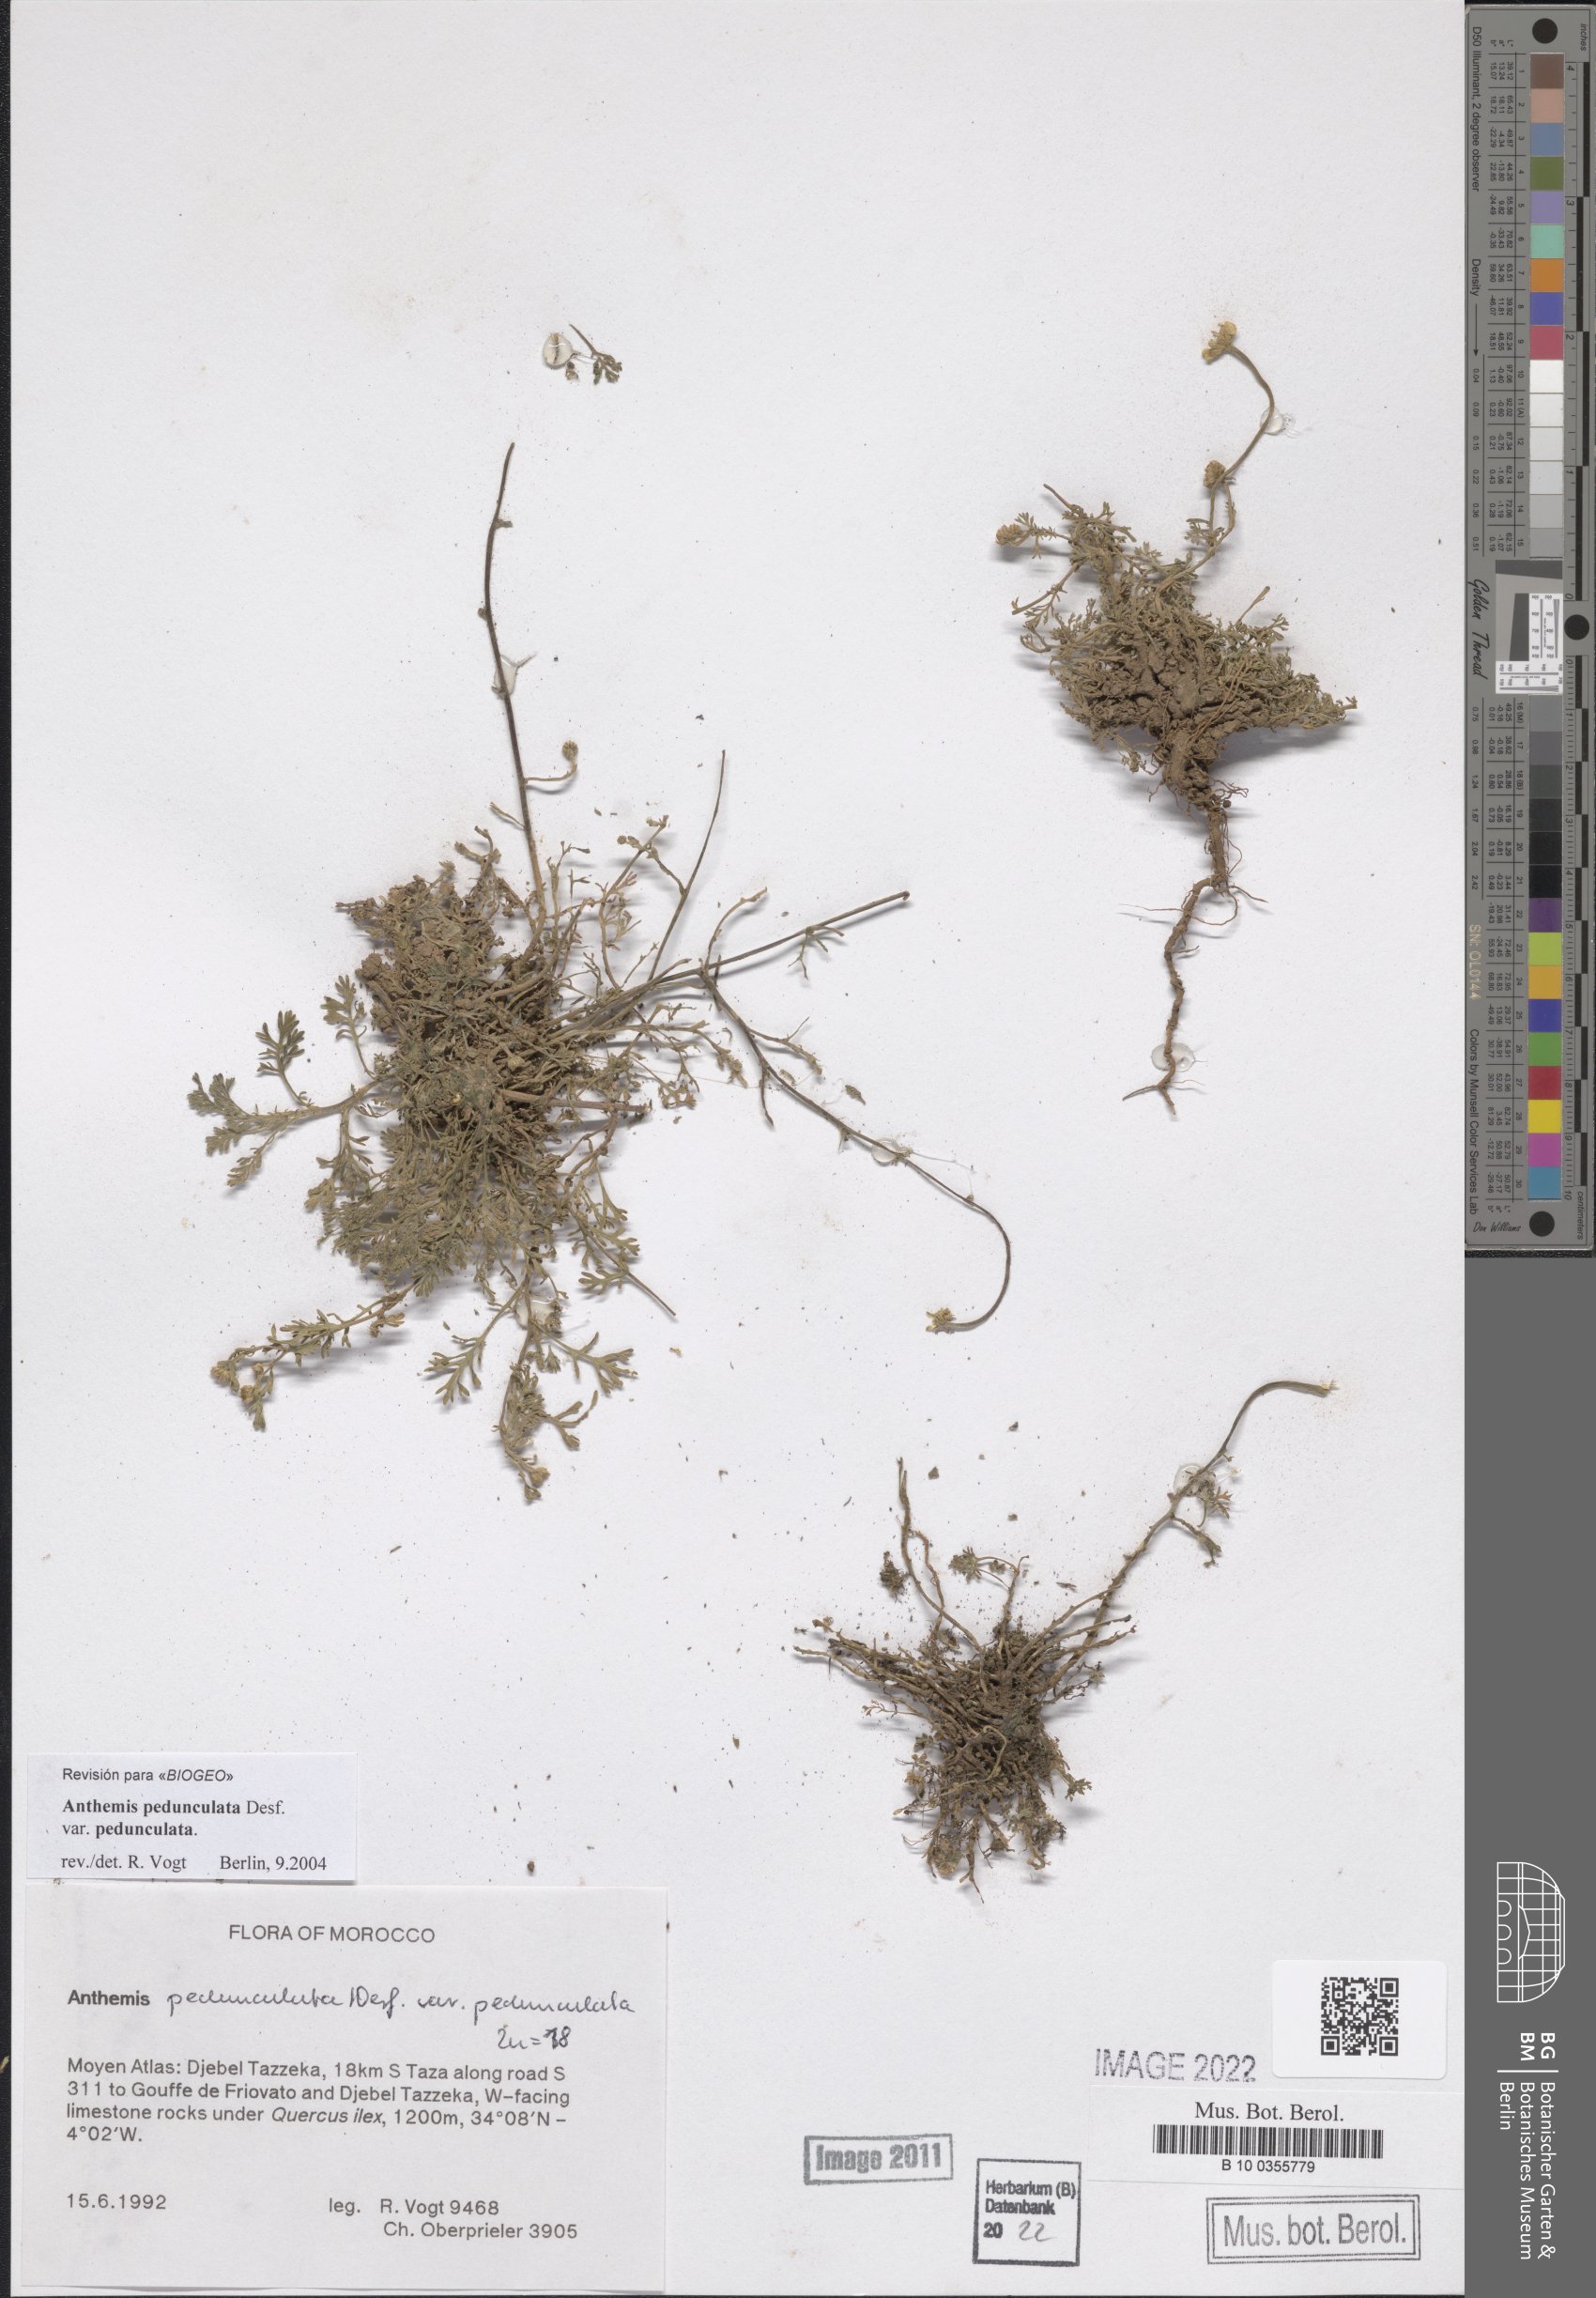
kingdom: Plantae
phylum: Tracheophyta
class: Magnoliopsida
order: Asterales
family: Asteraceae
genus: Anthemis
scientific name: Anthemis pedunculata
